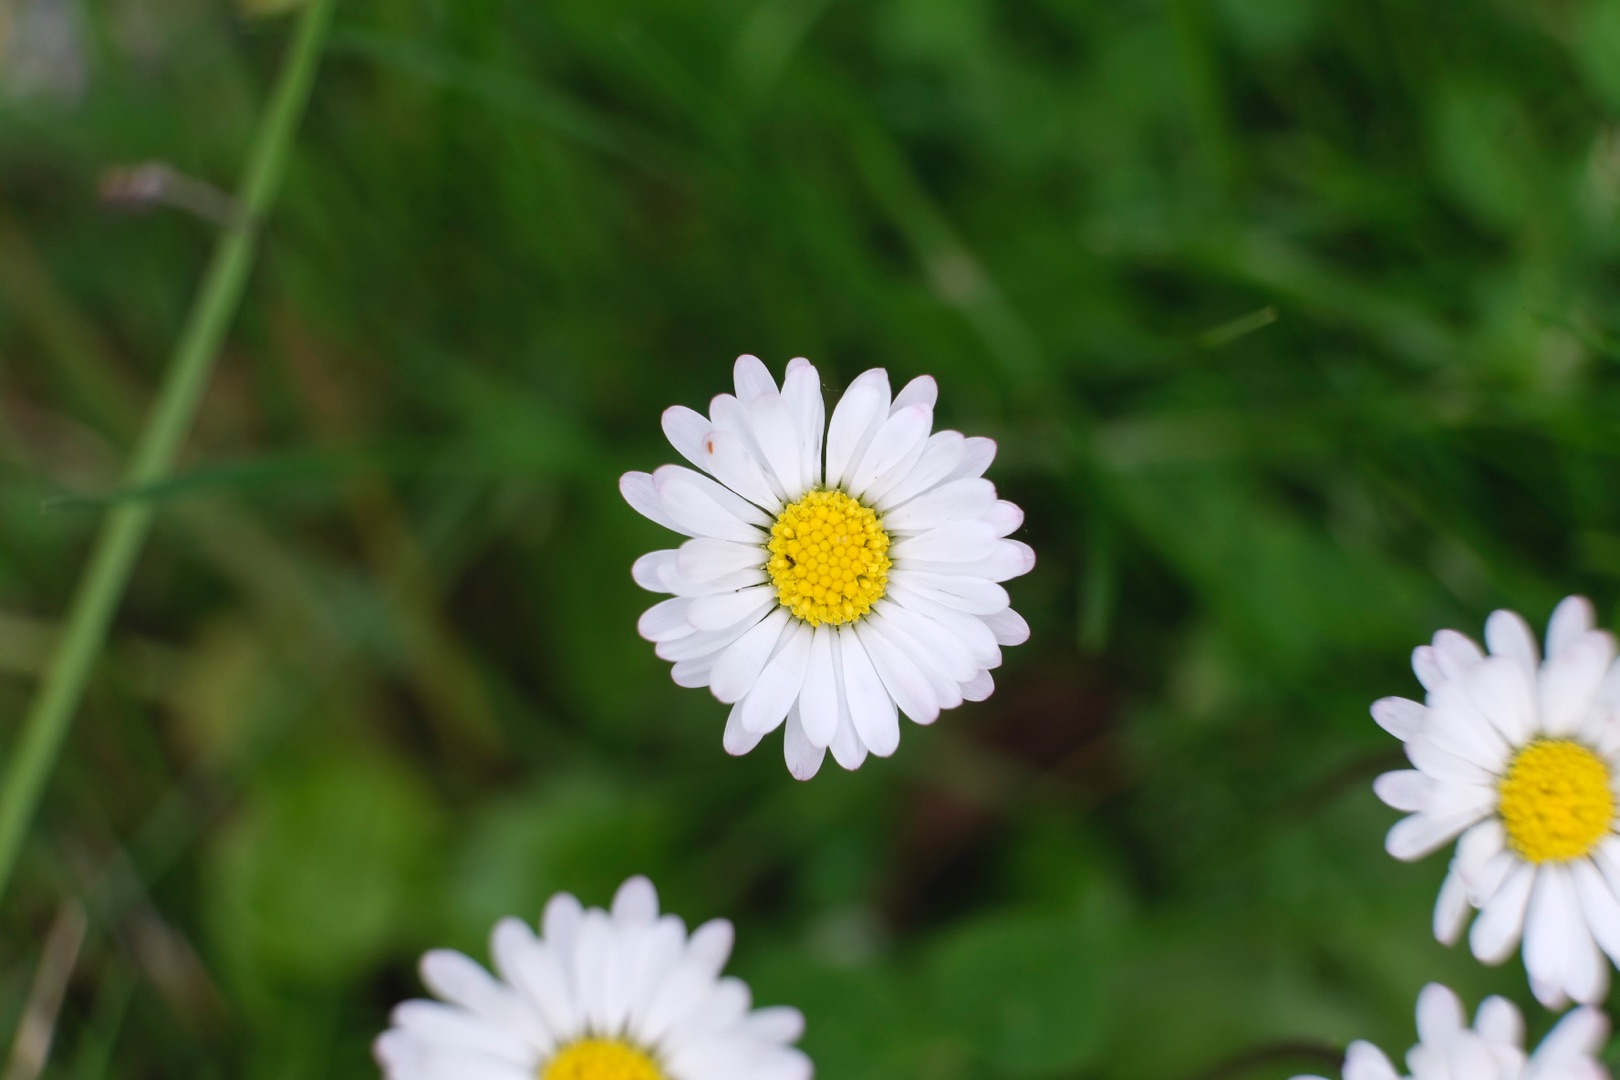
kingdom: Plantae
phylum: Tracheophyta
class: Magnoliopsida
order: Asterales
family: Asteraceae
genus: Bellis
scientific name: Bellis perennis
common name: Tusindfryd
